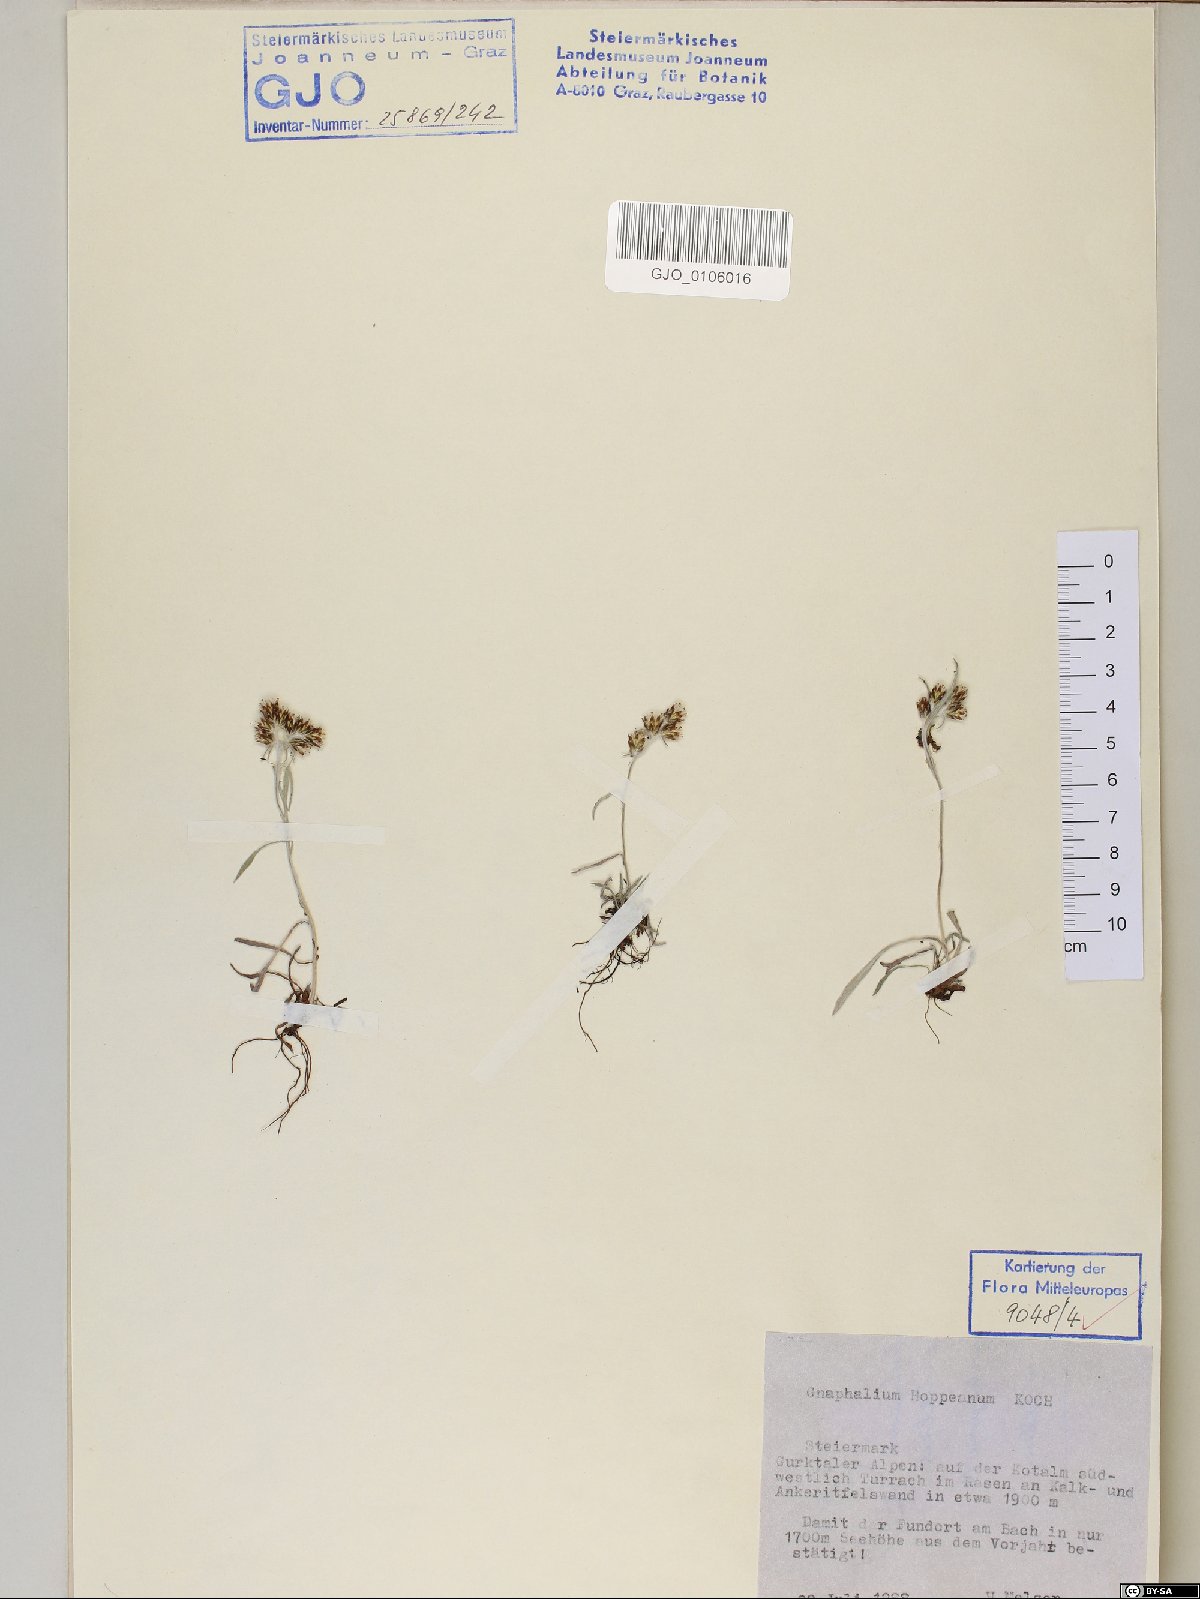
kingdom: Plantae
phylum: Tracheophyta
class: Magnoliopsida
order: Asterales
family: Asteraceae
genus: Omalotheca
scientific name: Omalotheca hoppeana
